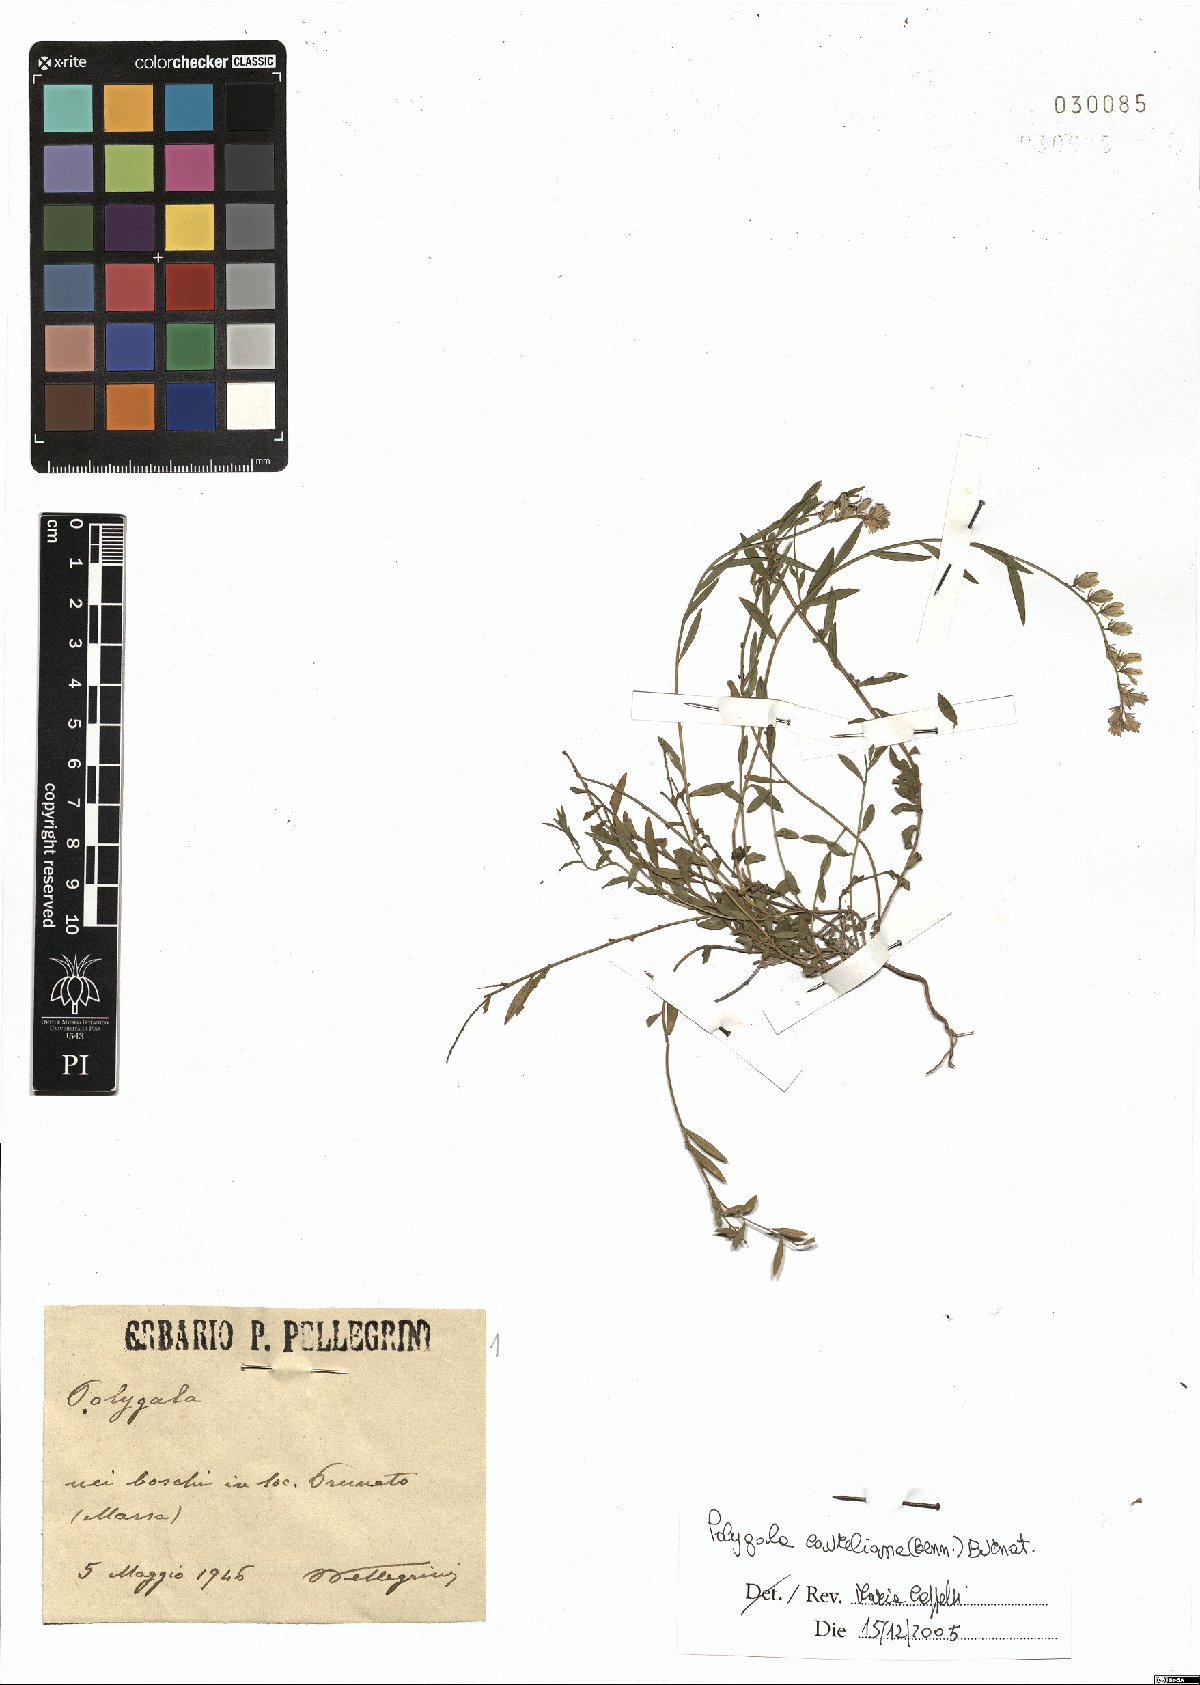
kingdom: Plantae
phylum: Tracheophyta
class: Magnoliopsida
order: Fabales
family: Polygalaceae
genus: Polygala
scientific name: Polygala carueliana
